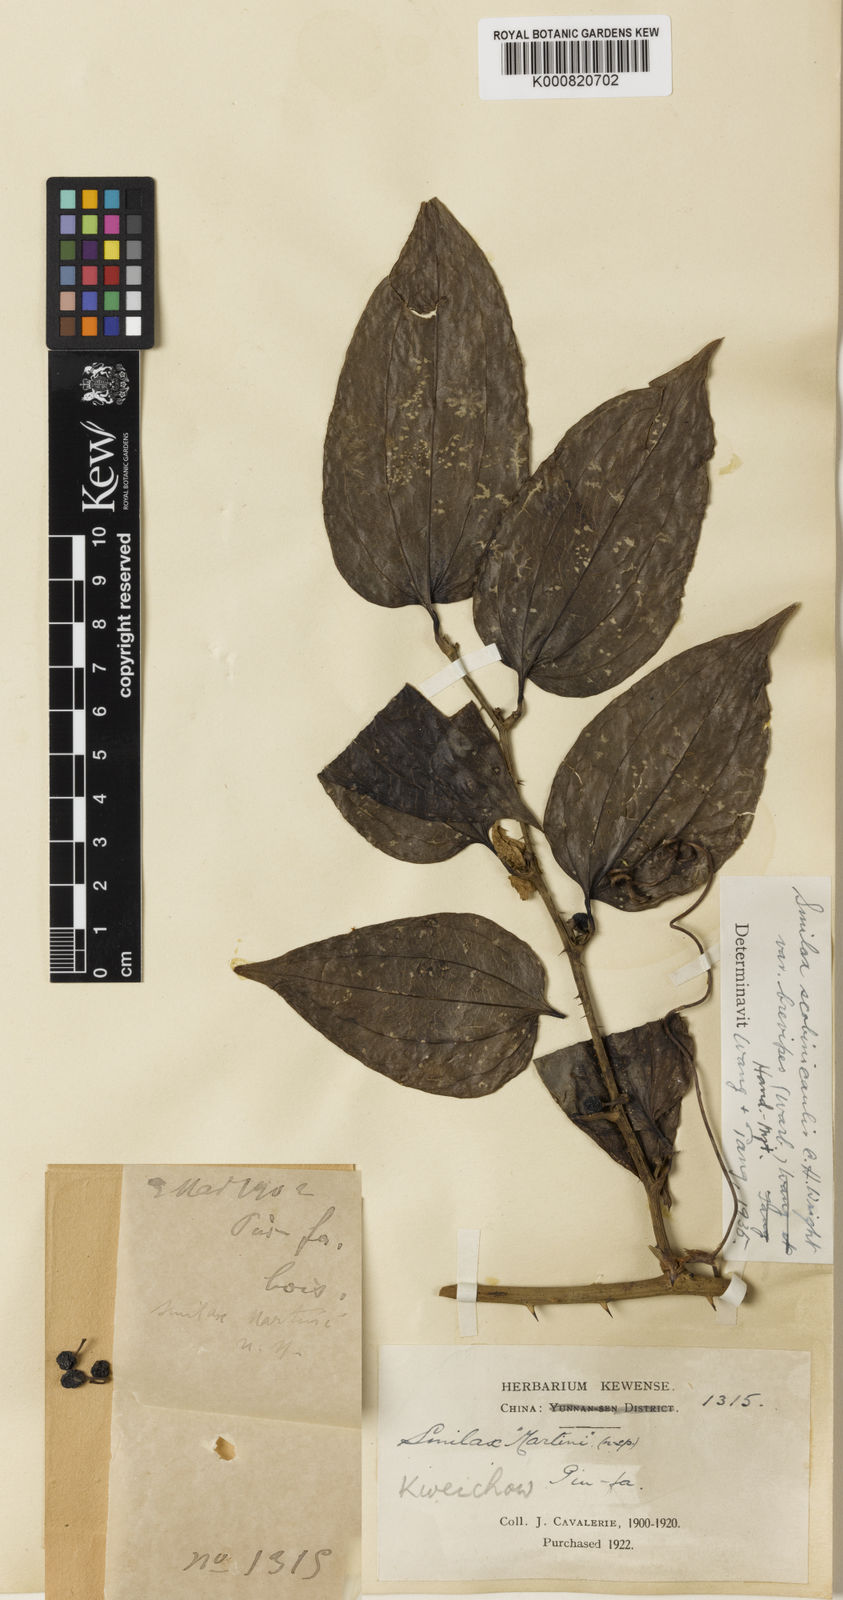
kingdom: Plantae
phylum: Tracheophyta
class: Liliopsida
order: Liliales
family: Smilacaceae
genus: Smilax
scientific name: Smilax scobinicaulis
